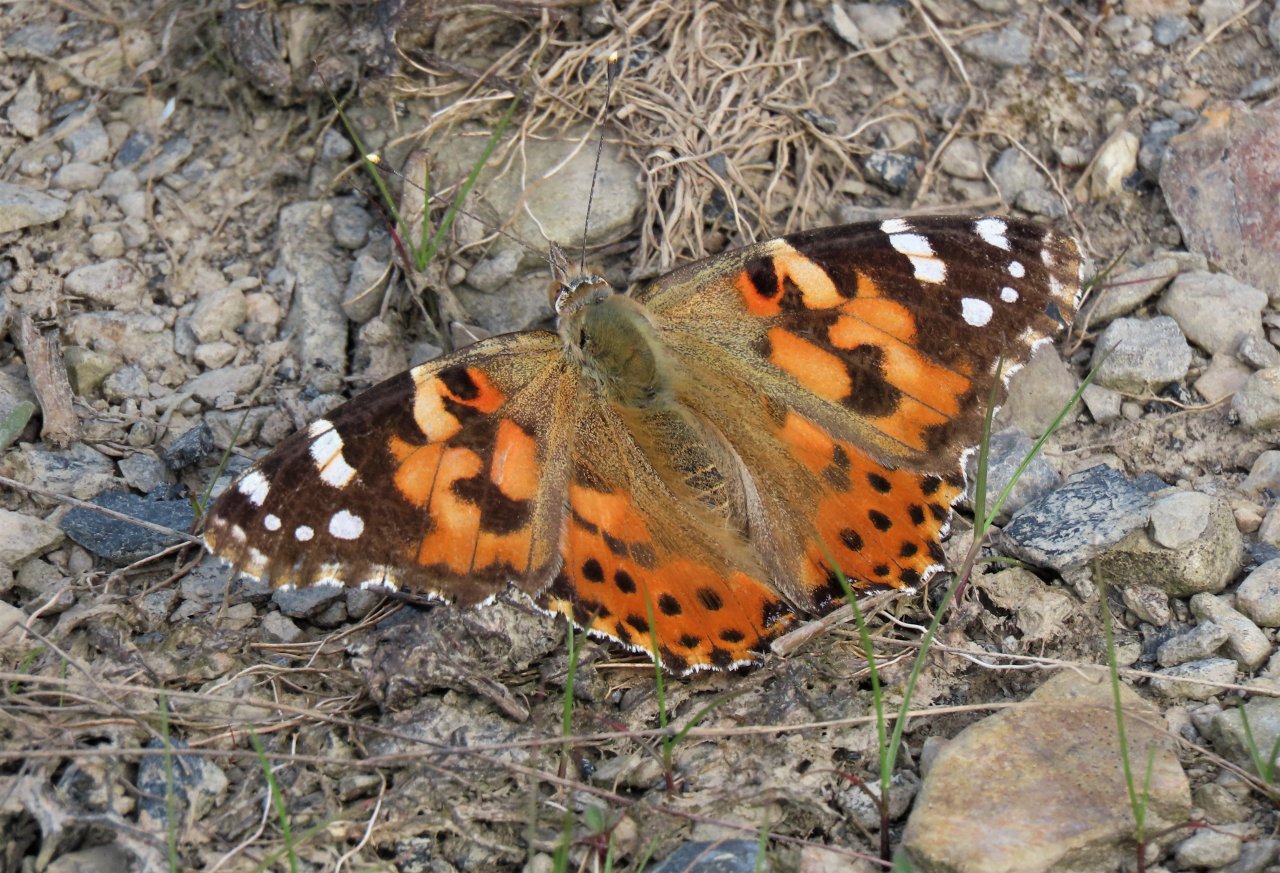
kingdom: Animalia
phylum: Arthropoda
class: Insecta
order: Lepidoptera
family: Nymphalidae
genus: Vanessa
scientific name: Vanessa cardui
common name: Painted Lady
